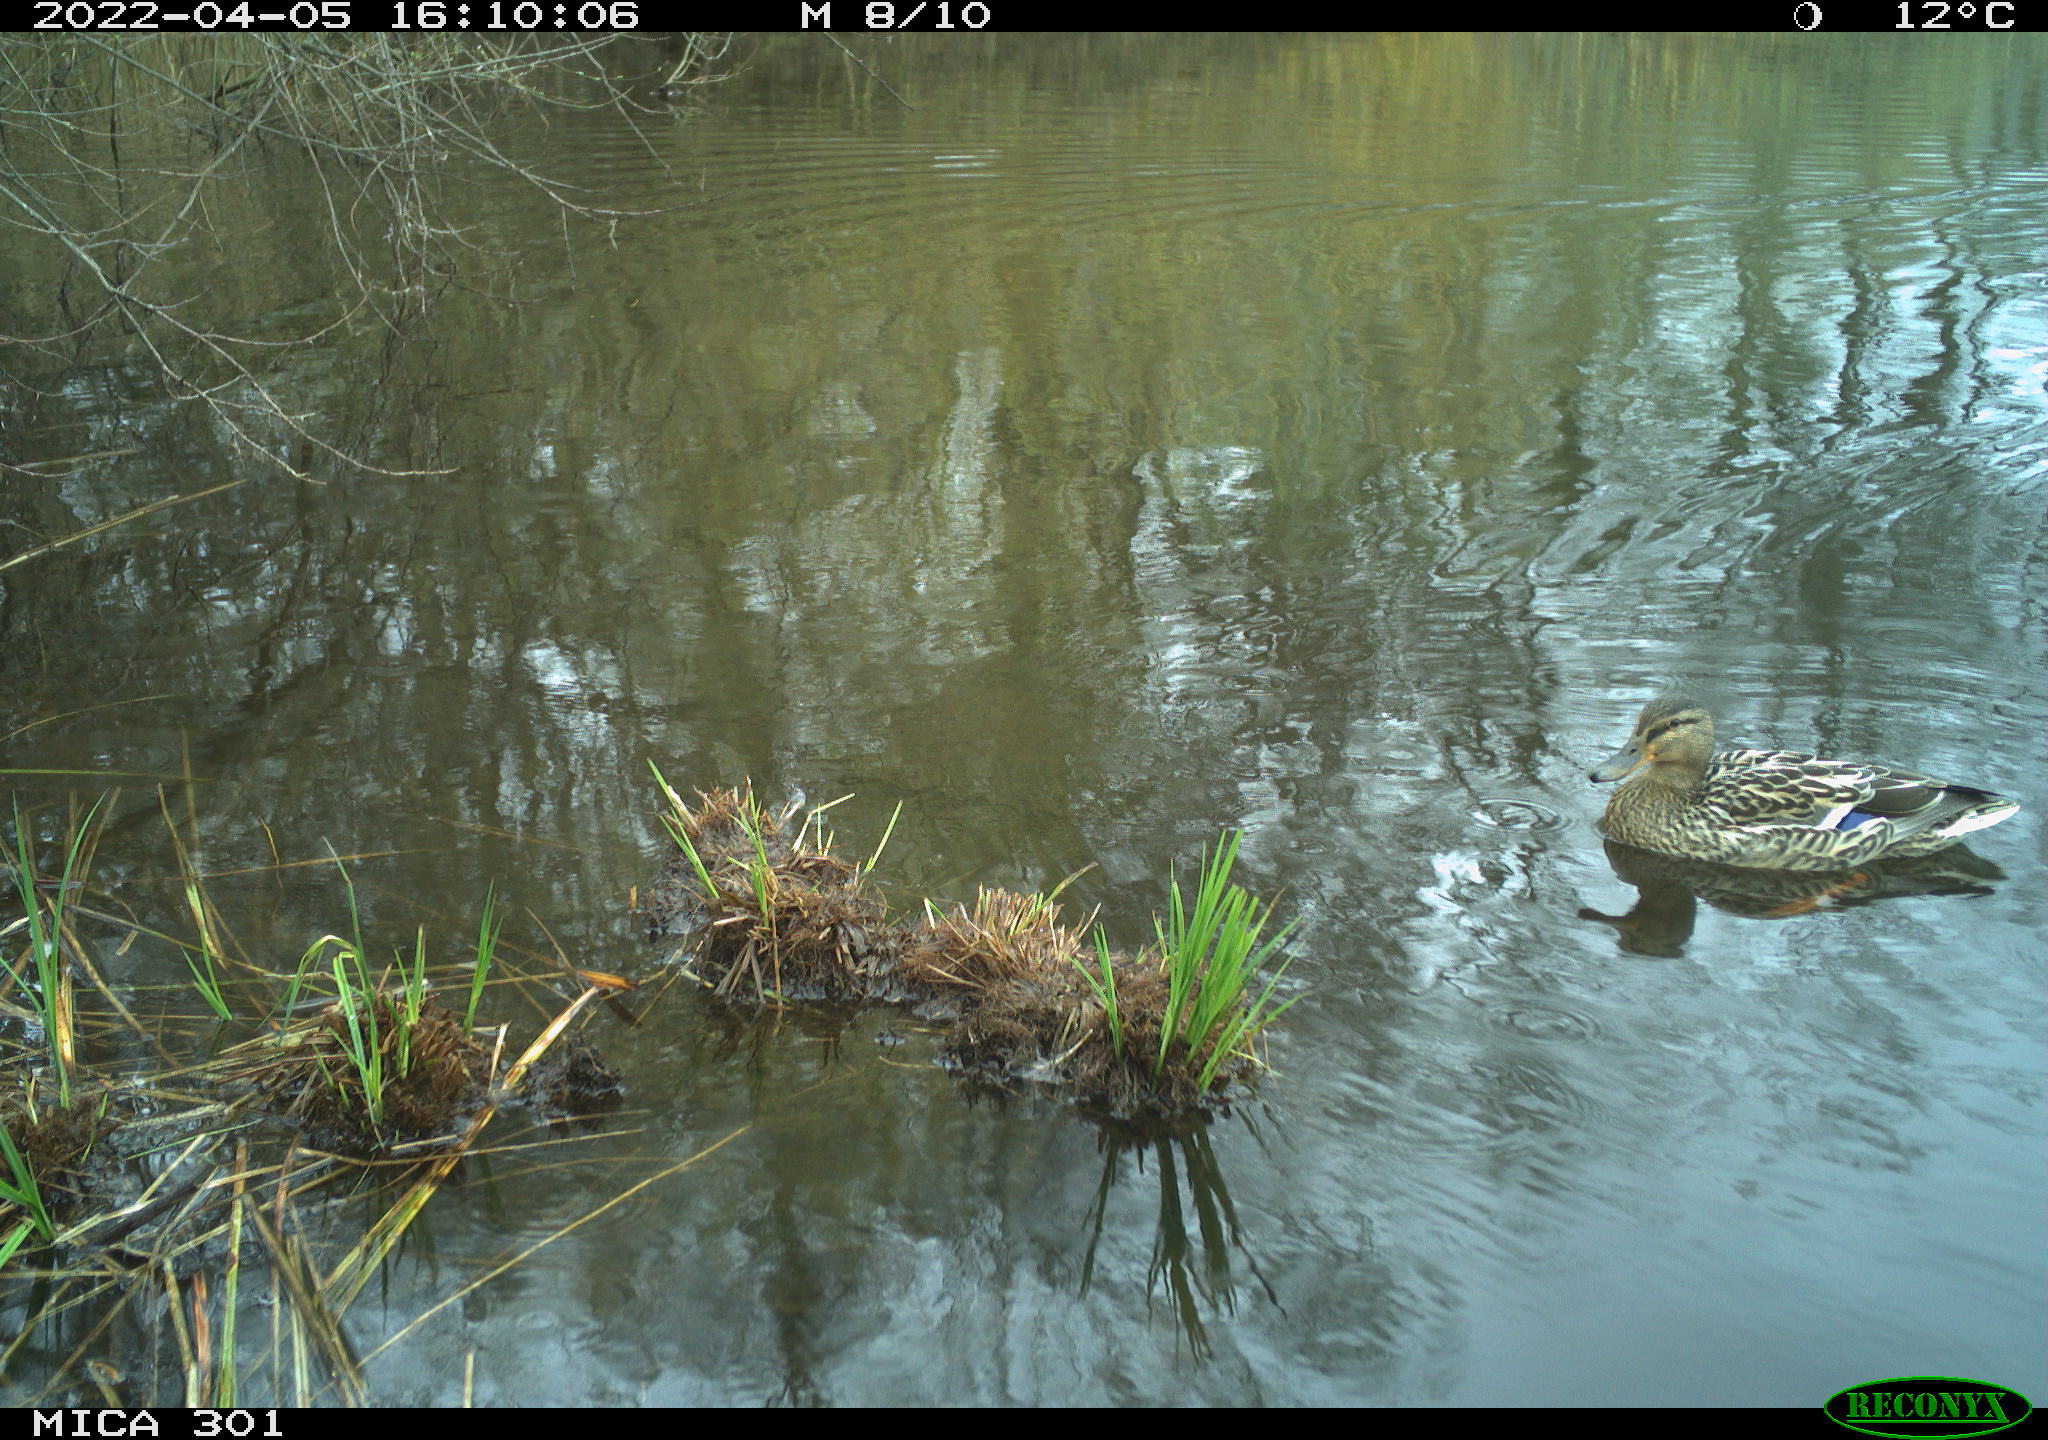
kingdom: Animalia
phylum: Chordata
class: Aves
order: Anseriformes
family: Anatidae
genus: Anas
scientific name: Anas platyrhynchos
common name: Mallard
